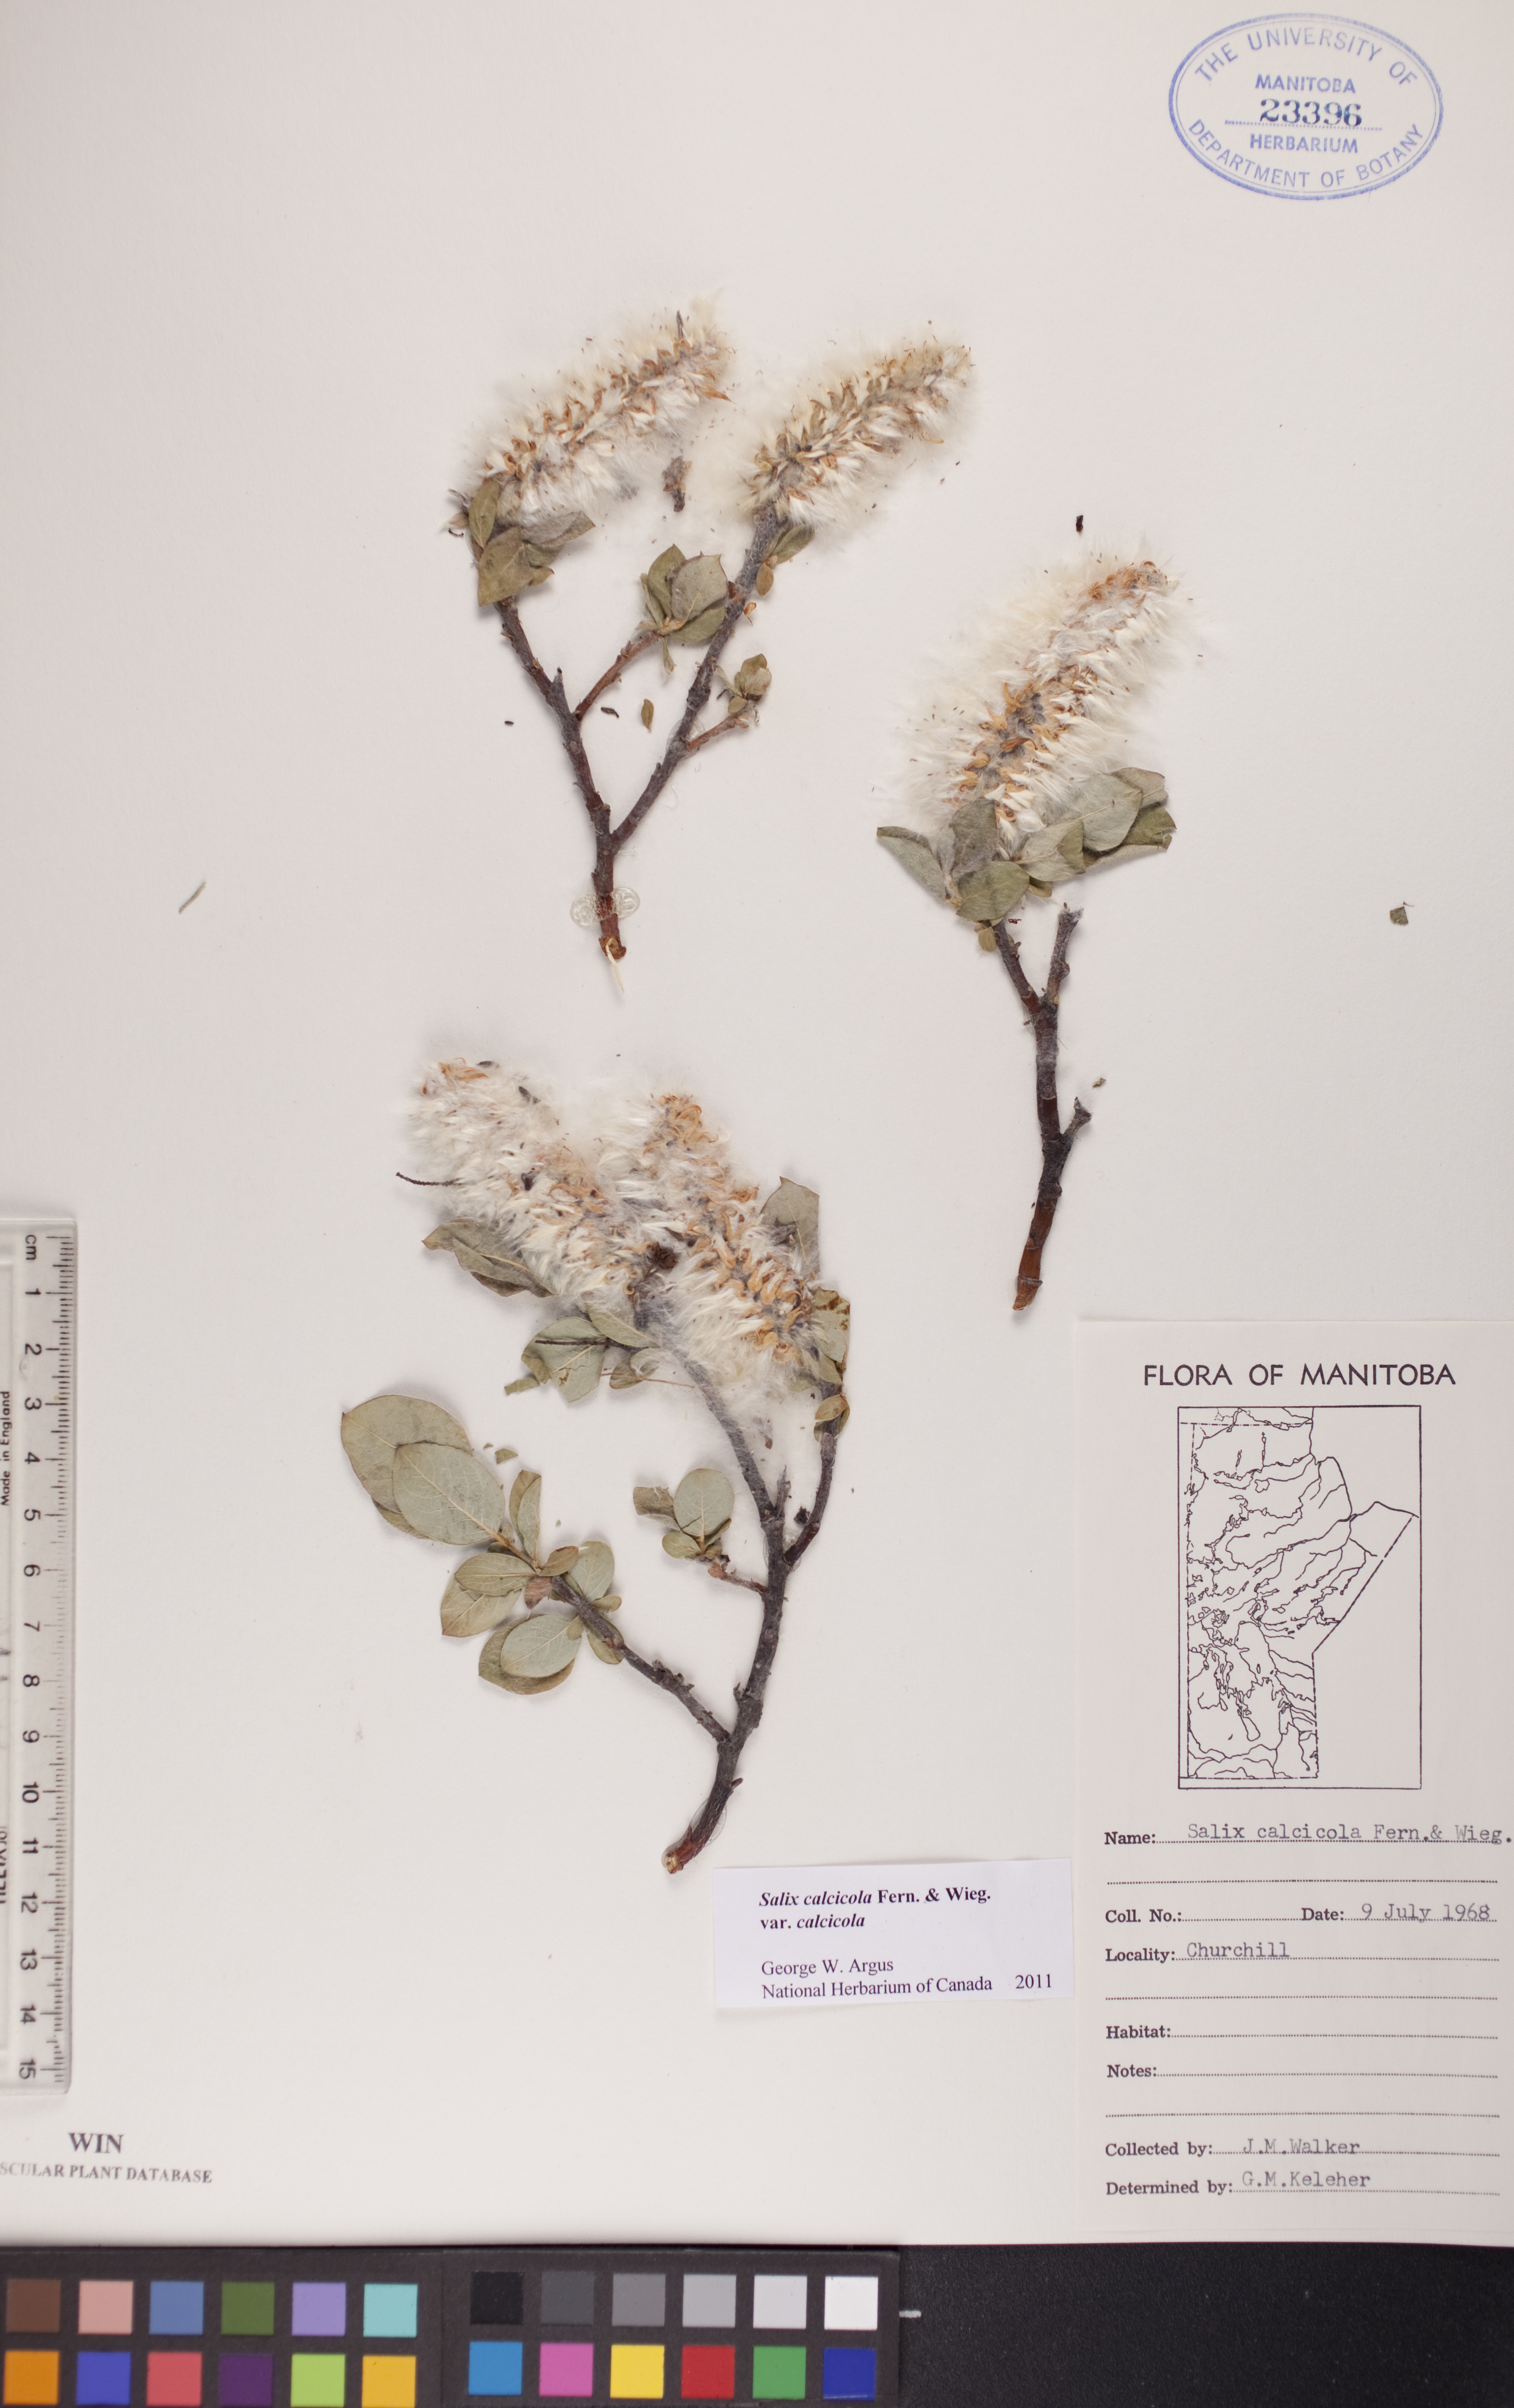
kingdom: Plantae
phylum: Tracheophyta
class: Magnoliopsida
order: Malpighiales
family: Salicaceae
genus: Salix
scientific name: Salix calcicola
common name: Calcareous willow
